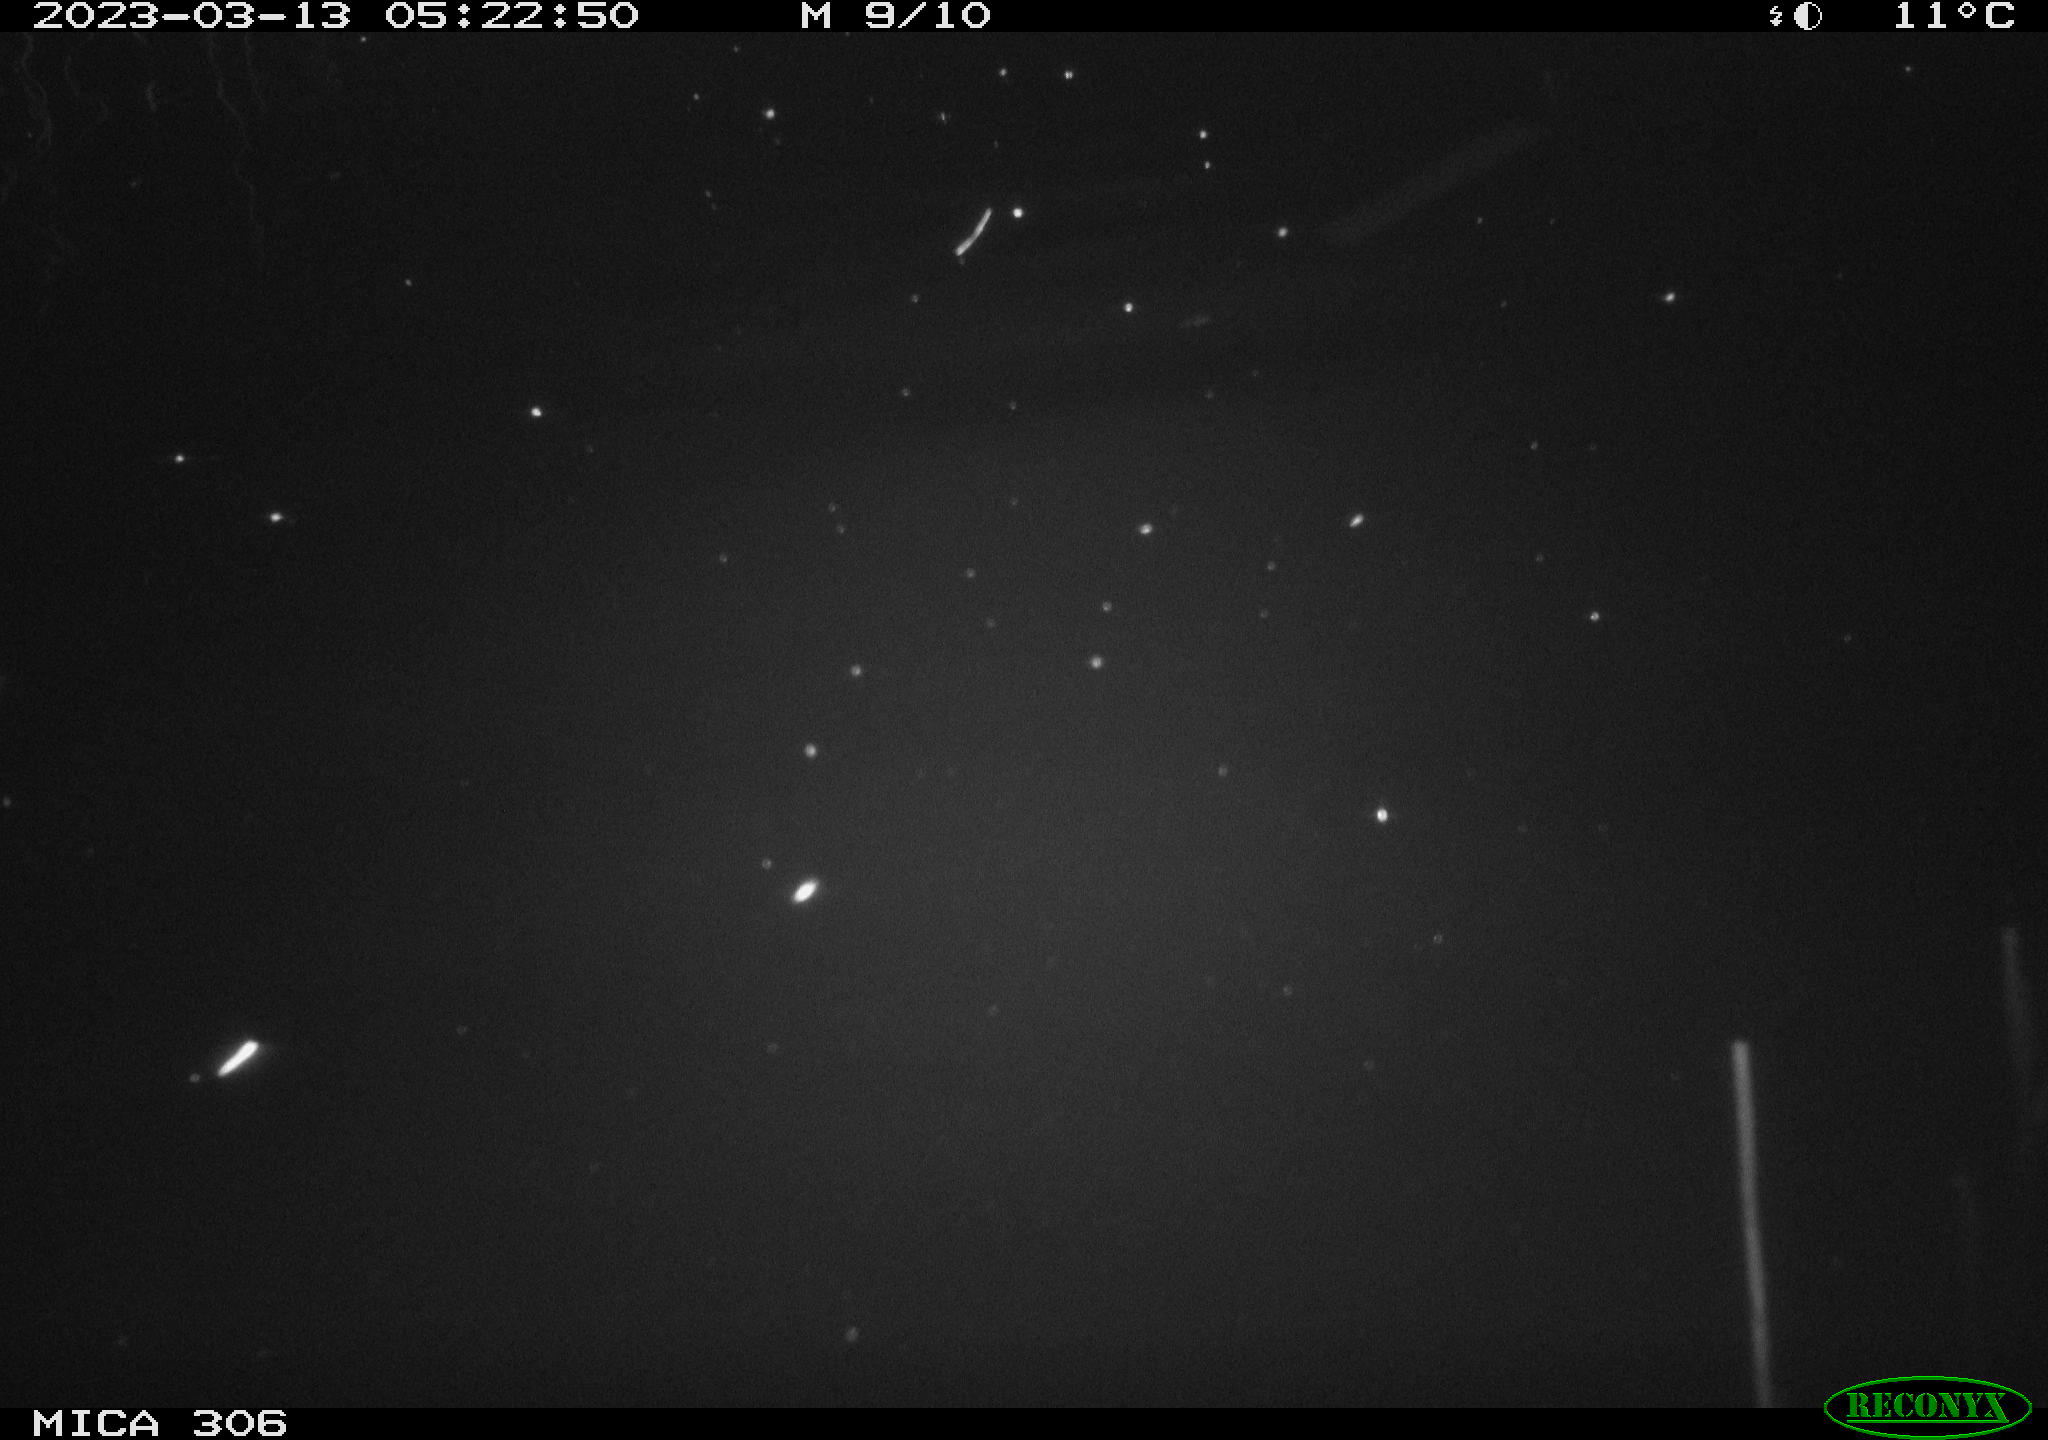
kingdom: Animalia
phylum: Chordata
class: Mammalia
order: Rodentia
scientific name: Rodentia
